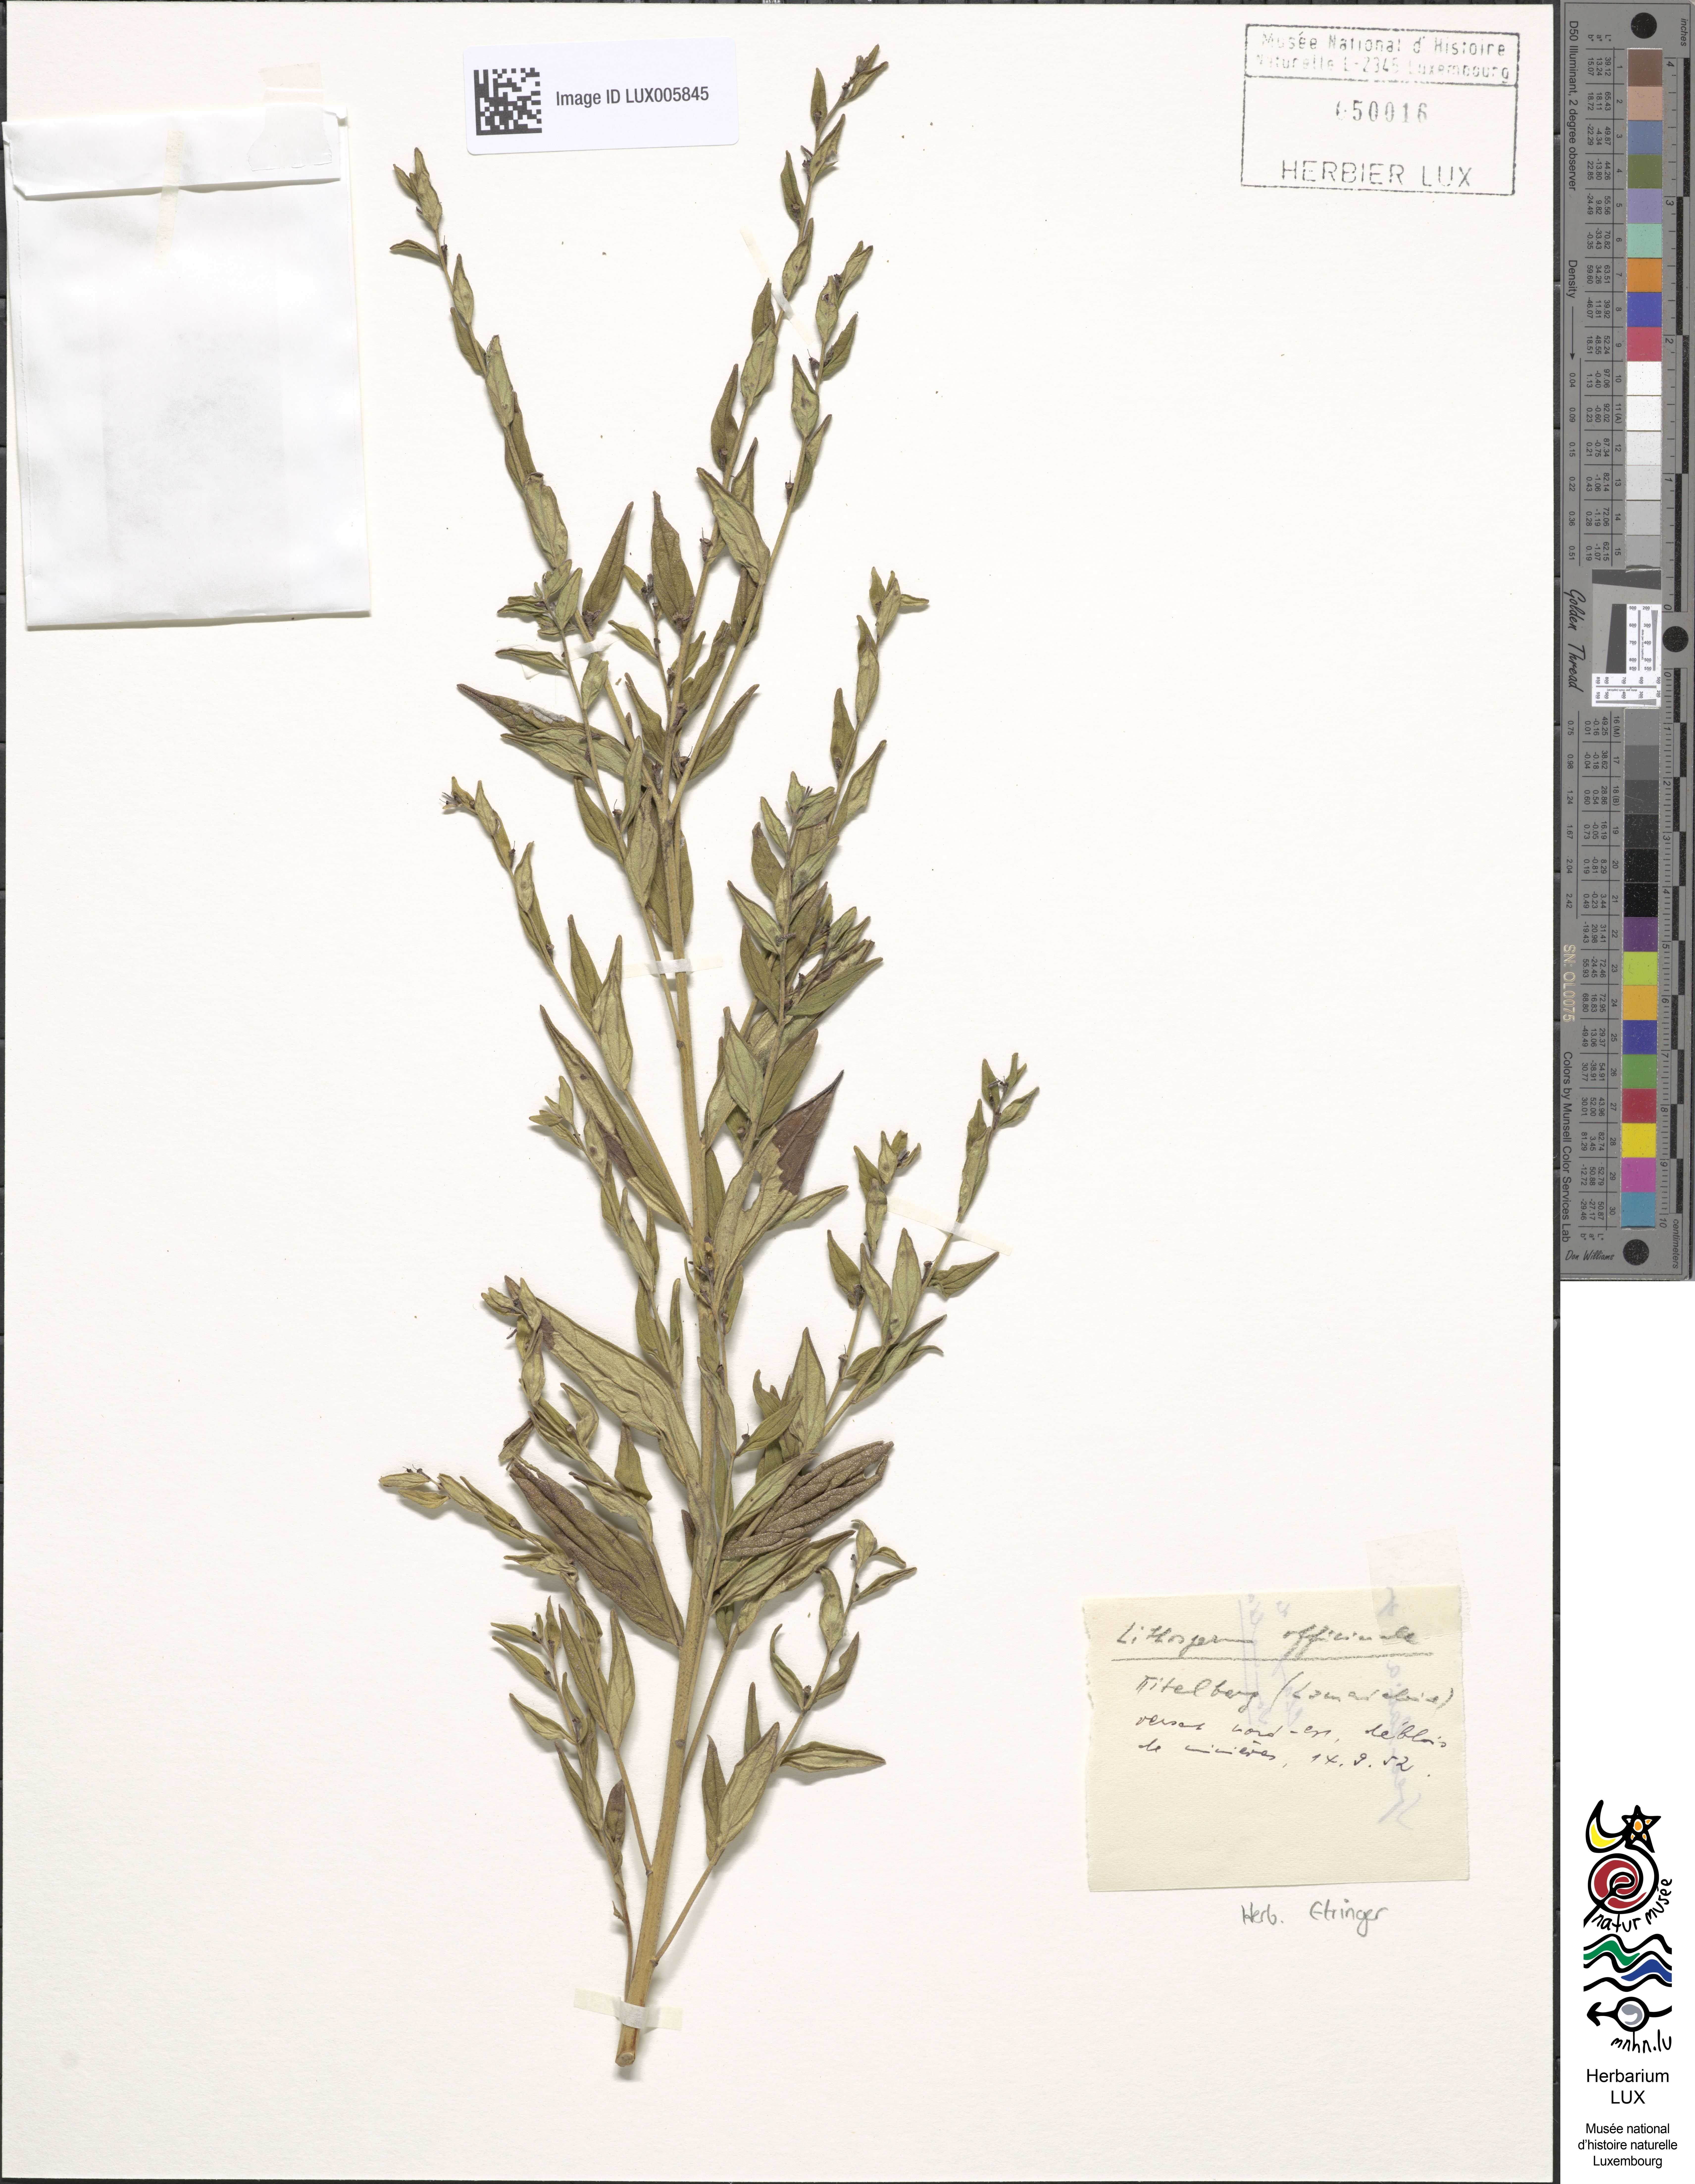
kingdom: Plantae
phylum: Tracheophyta
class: Magnoliopsida
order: Boraginales
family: Boraginaceae
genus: Lithospermum
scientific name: Lithospermum officinale
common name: Common gromwell
